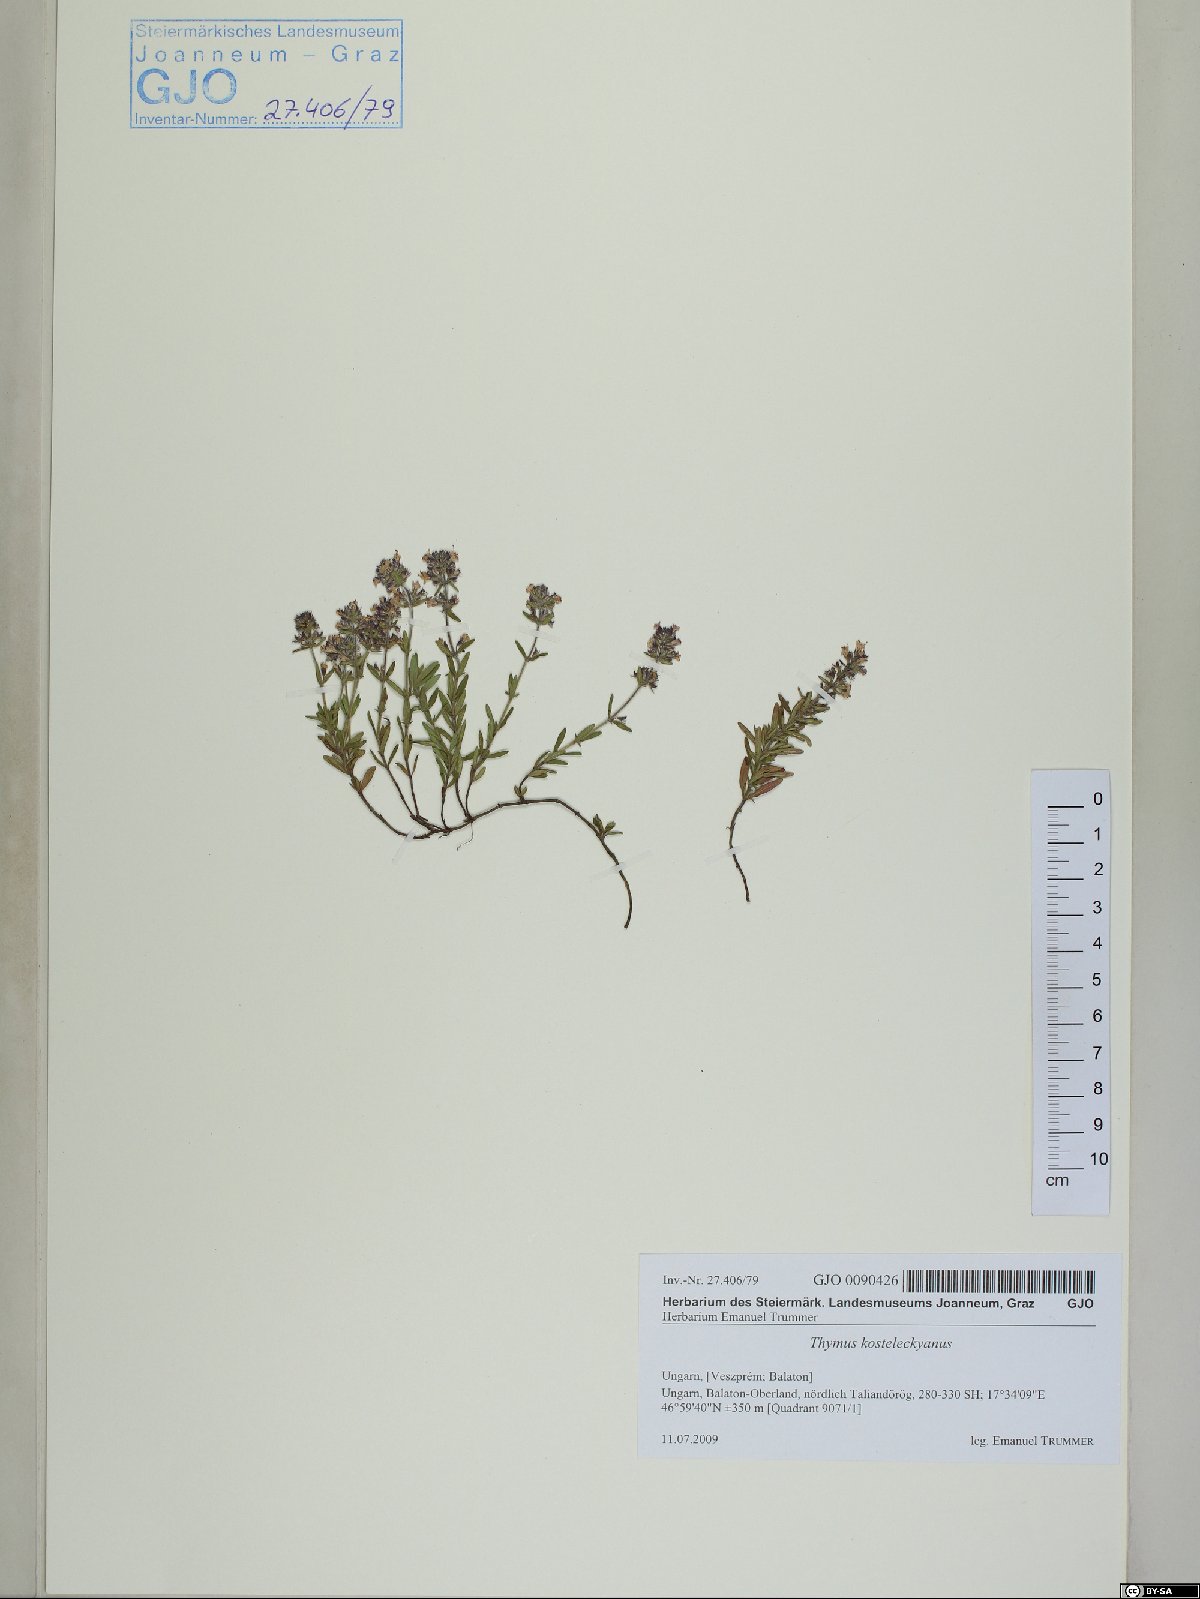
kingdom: Plantae
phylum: Tracheophyta
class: Magnoliopsida
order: Lamiales
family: Lamiaceae
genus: Thymus
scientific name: Thymus kosteleckyanus
